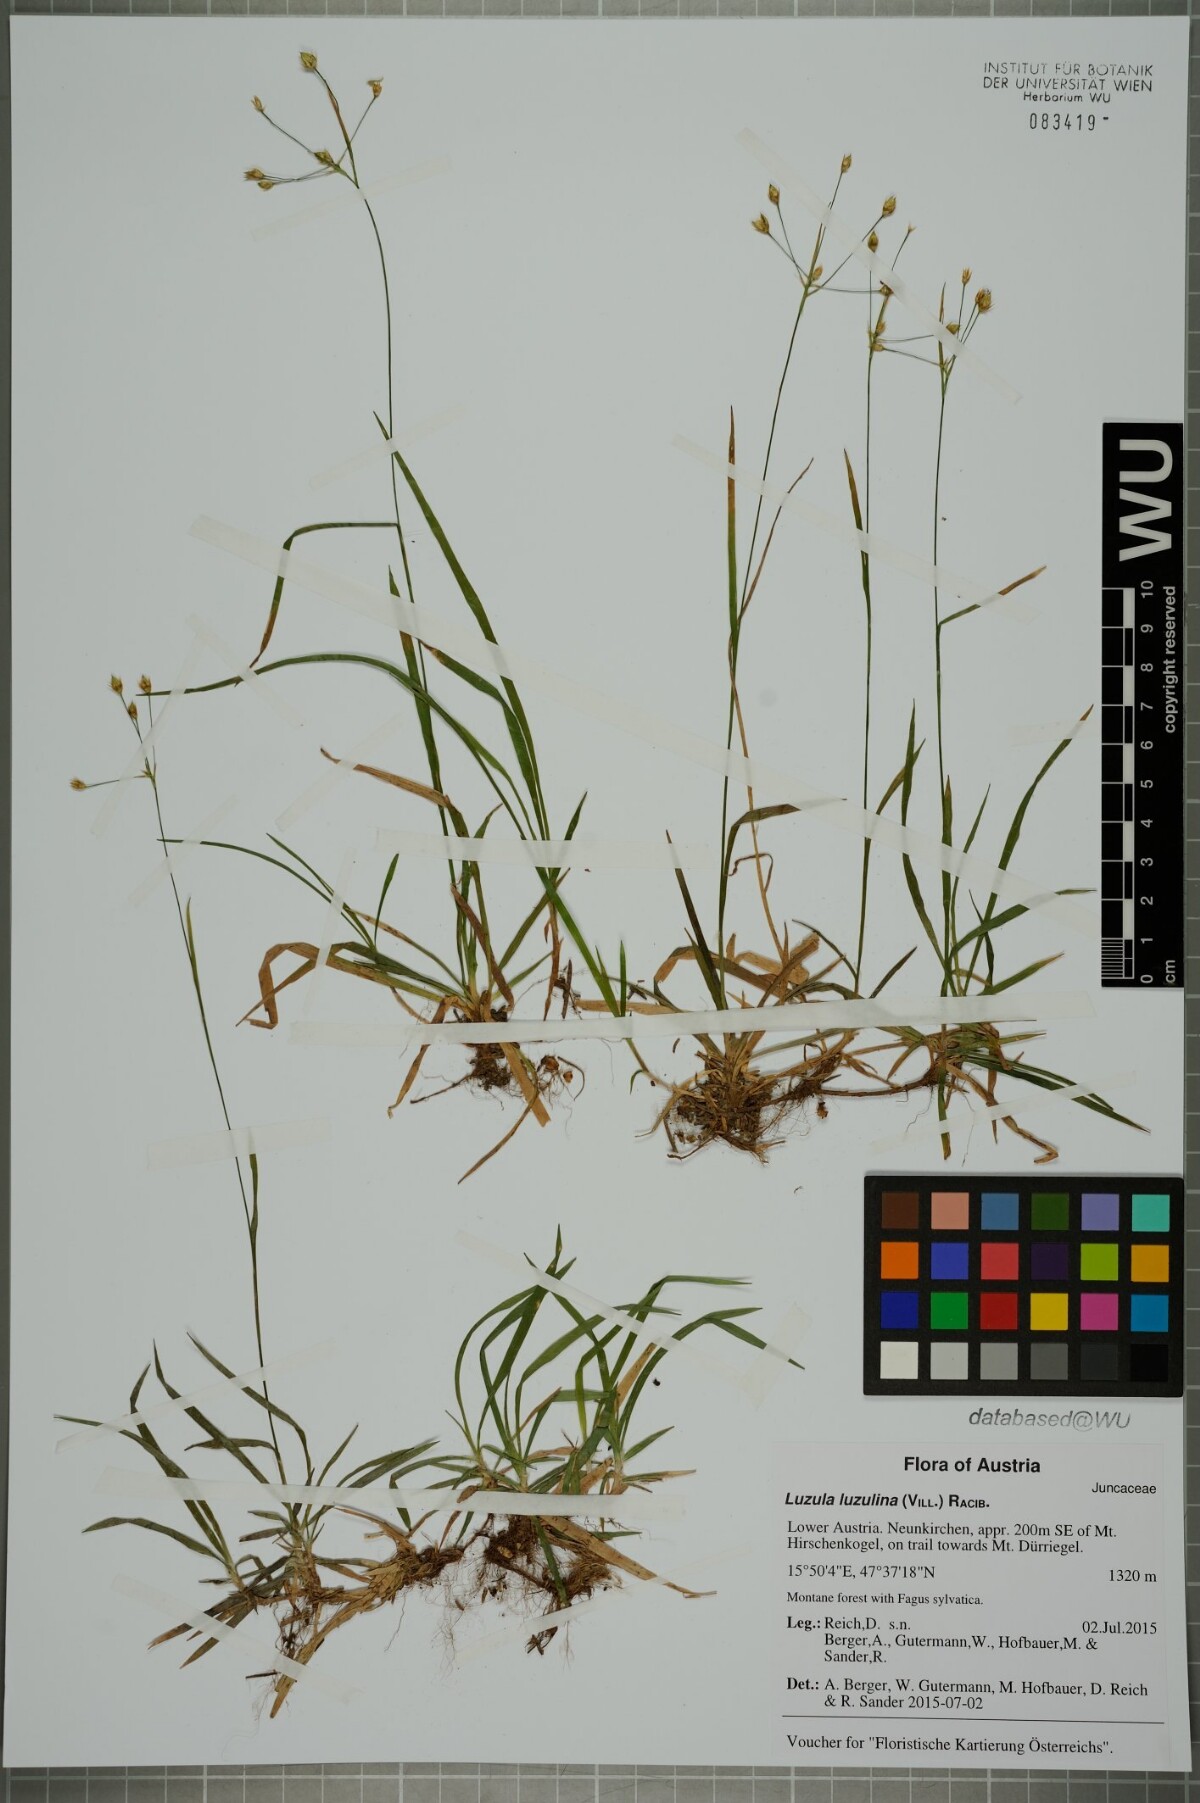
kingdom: Plantae
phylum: Tracheophyta
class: Liliopsida
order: Poales
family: Juncaceae
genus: Luzula
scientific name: Luzula luzulina
